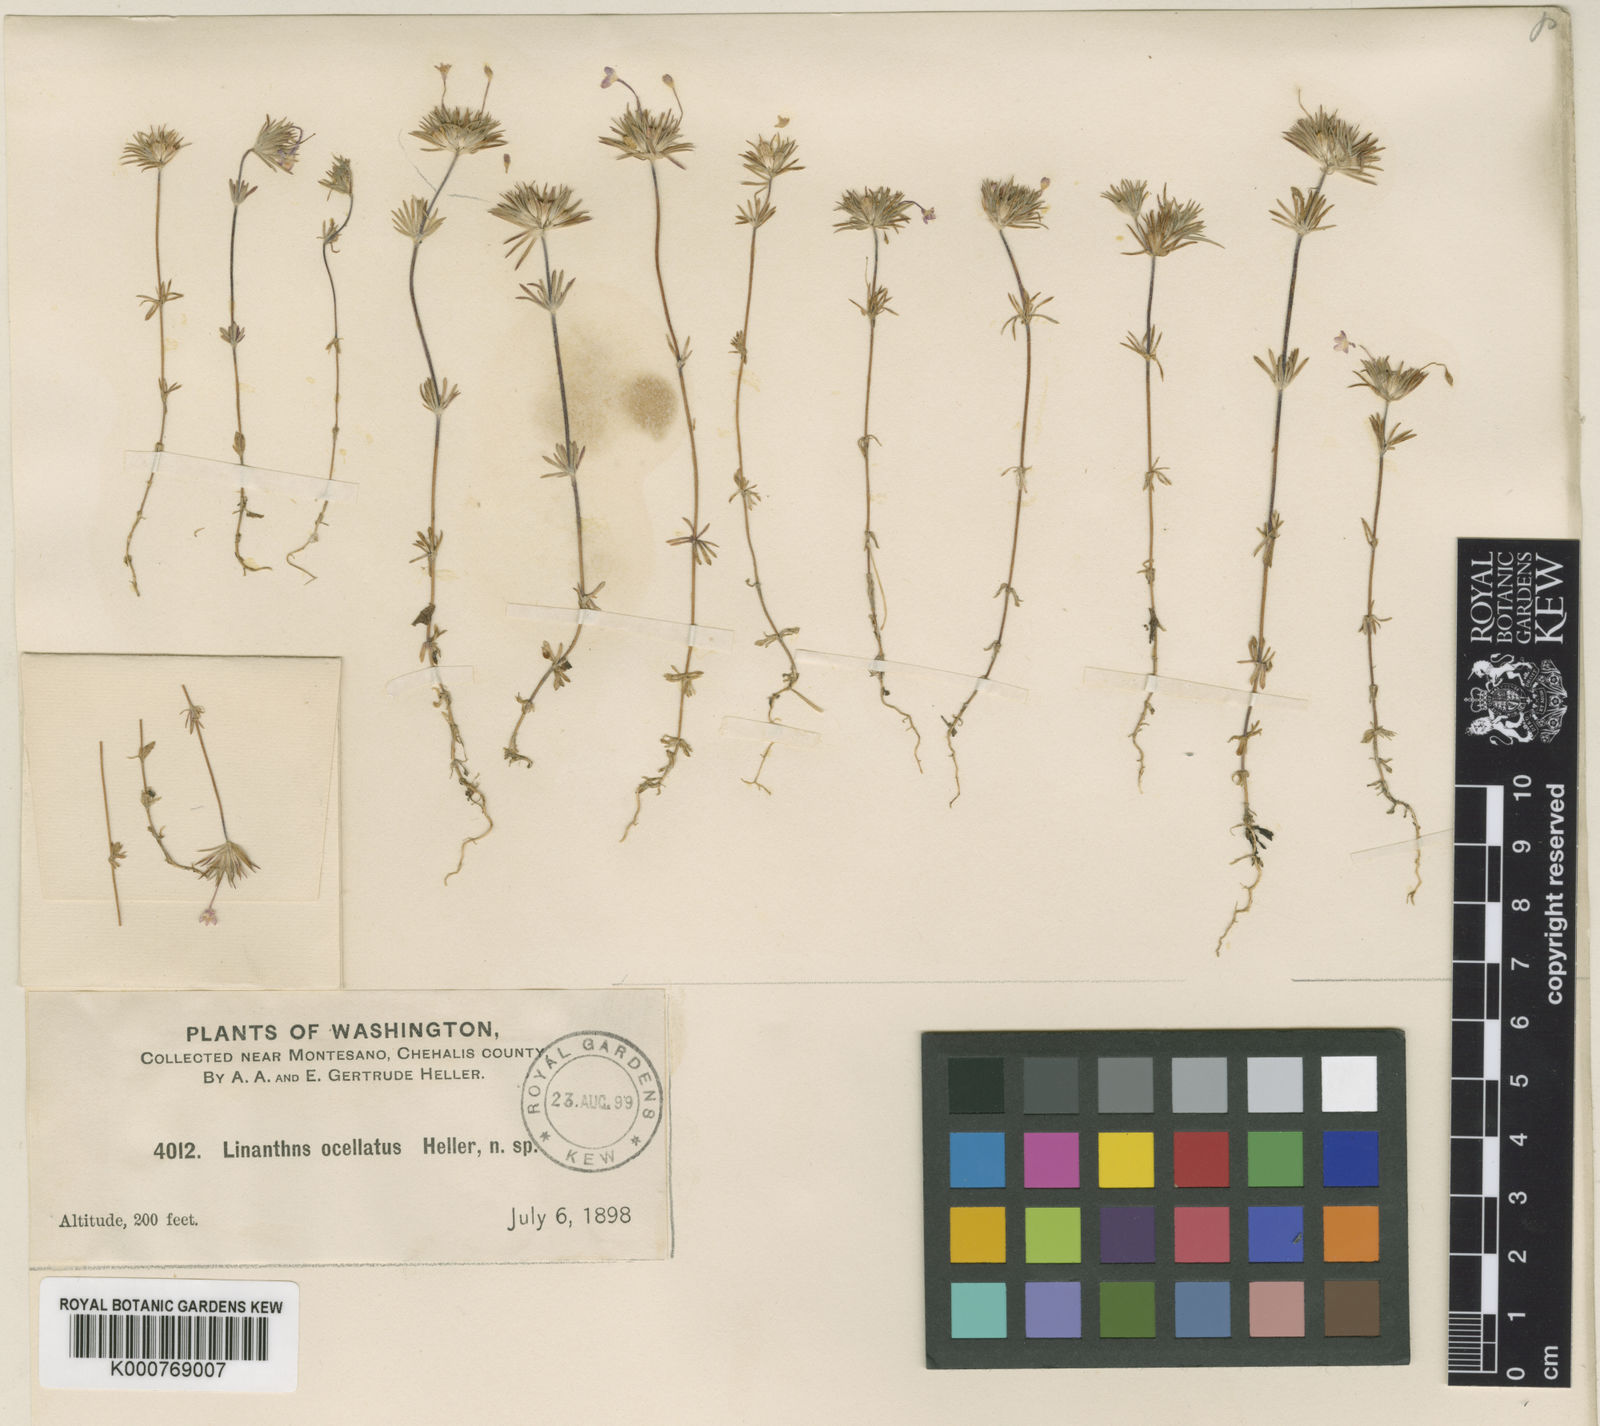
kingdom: Plantae
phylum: Tracheophyta
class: Magnoliopsida
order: Ericales
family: Polemoniaceae
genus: Leptosiphon
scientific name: Leptosiphon bicolor
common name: True babystars
